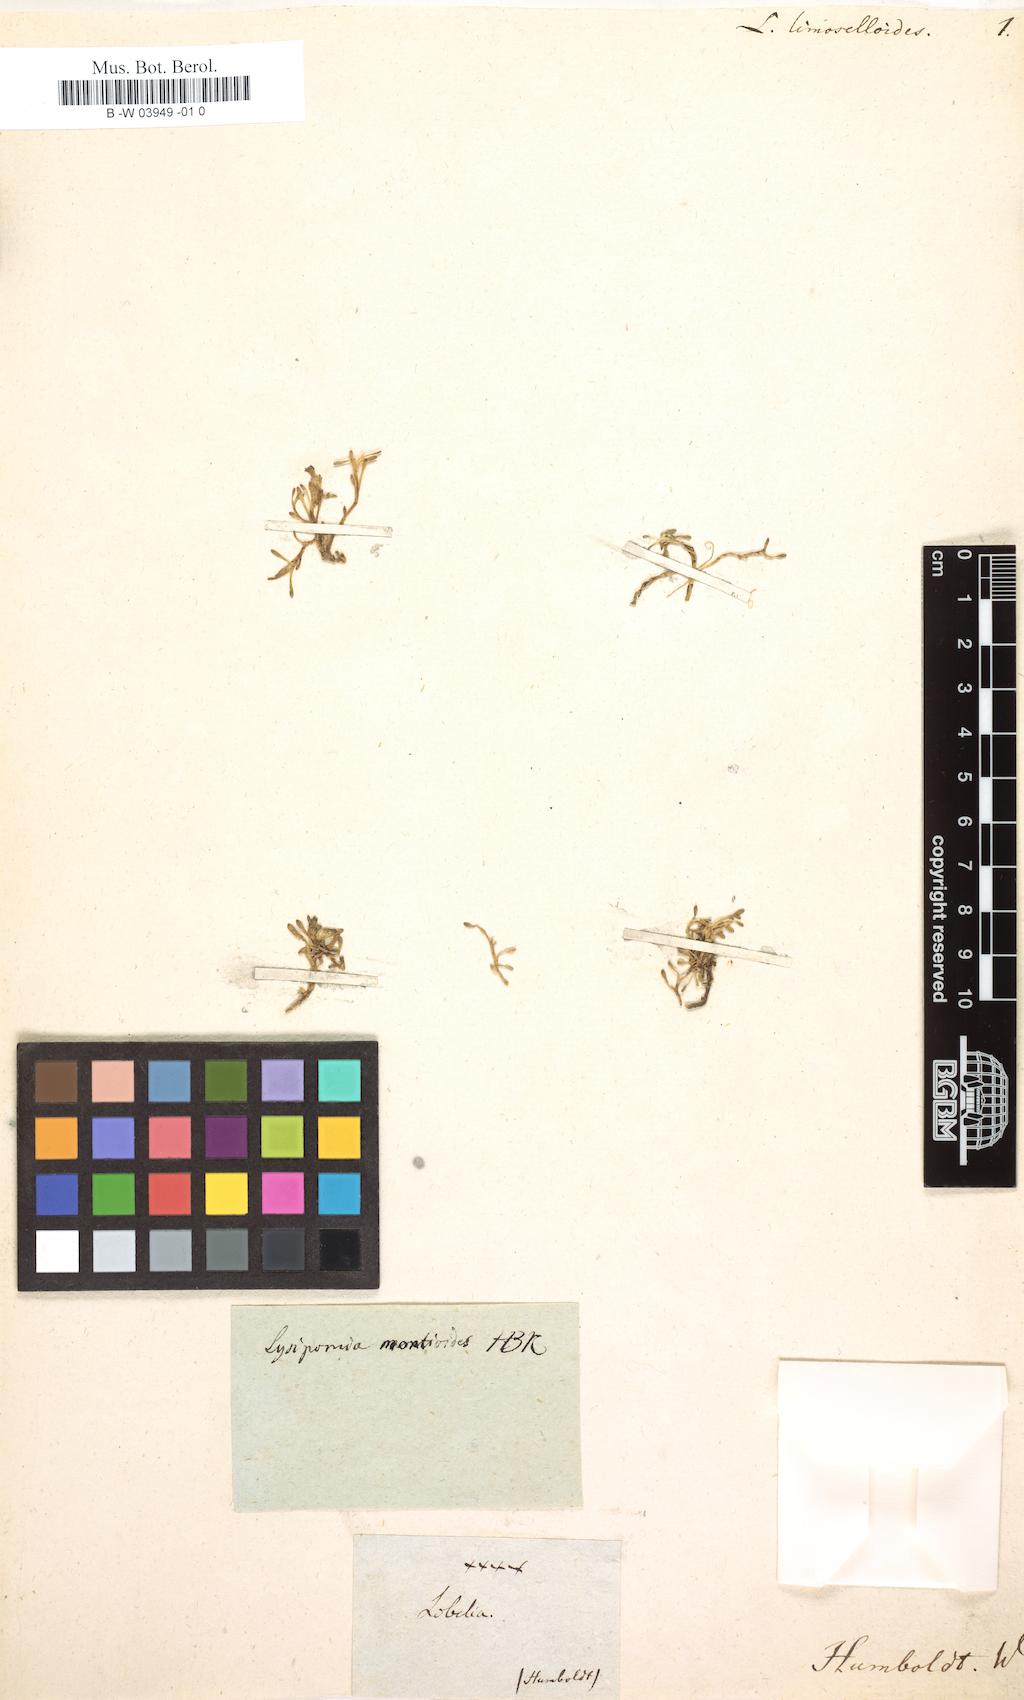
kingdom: Plantae
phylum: Tracheophyta
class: Magnoliopsida
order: Asterales
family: Campanulaceae
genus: Lysipomia
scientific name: Lysipomia montioides
